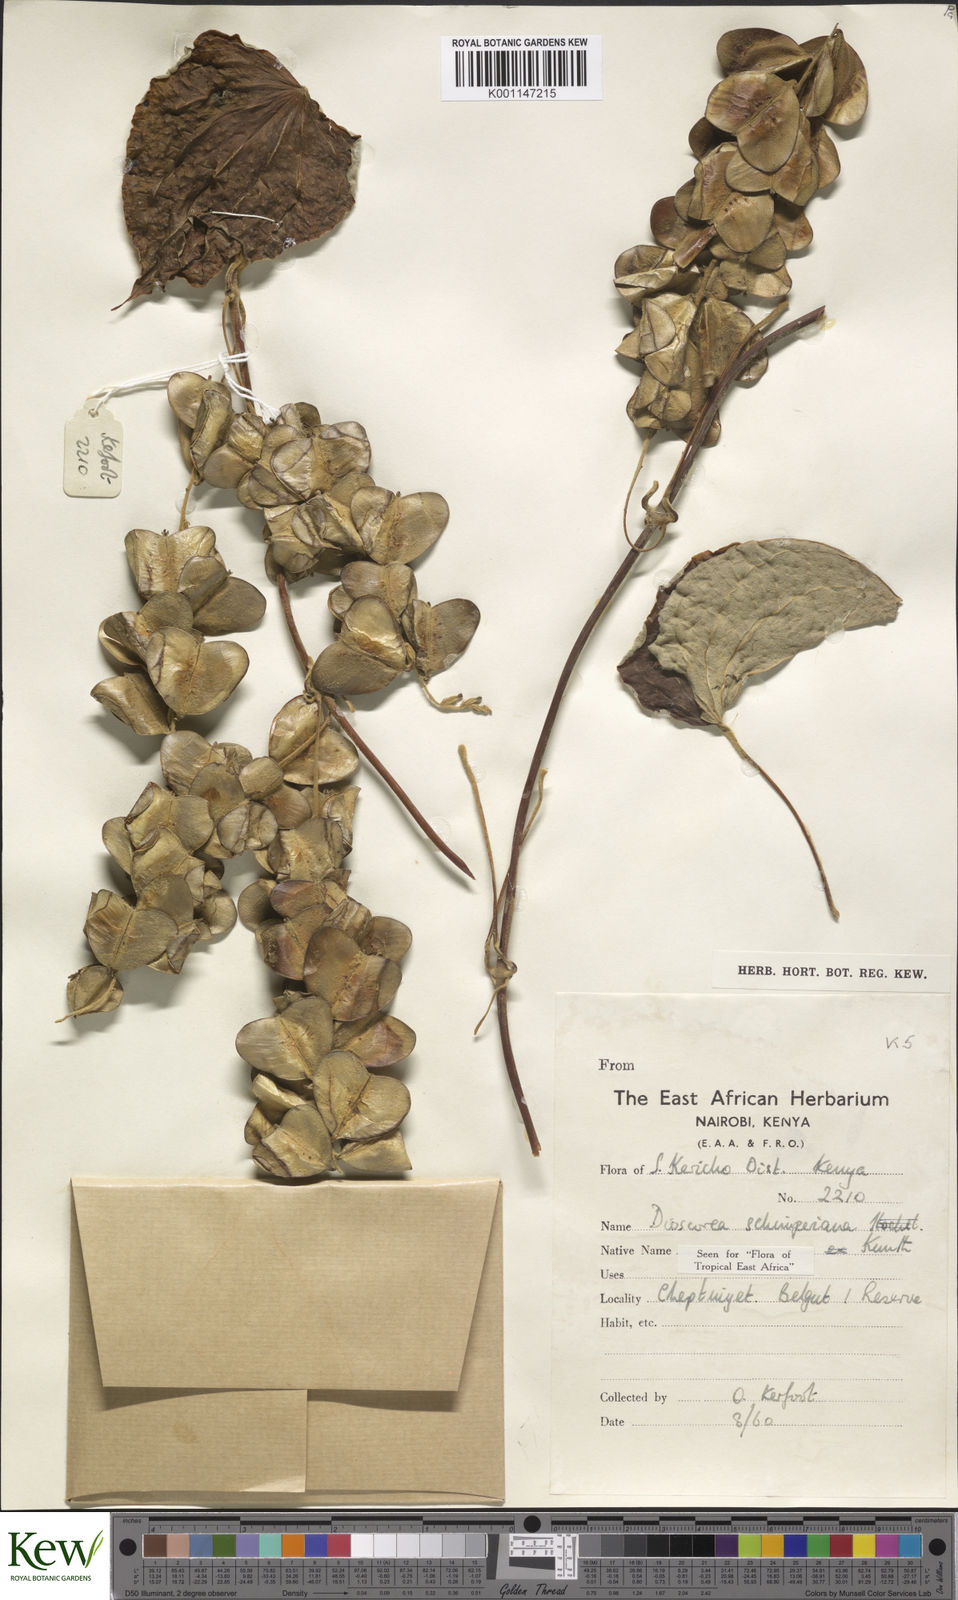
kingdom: Plantae
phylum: Tracheophyta
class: Liliopsida
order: Dioscoreales
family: Dioscoreaceae
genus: Dioscorea
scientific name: Dioscorea schimperiana
